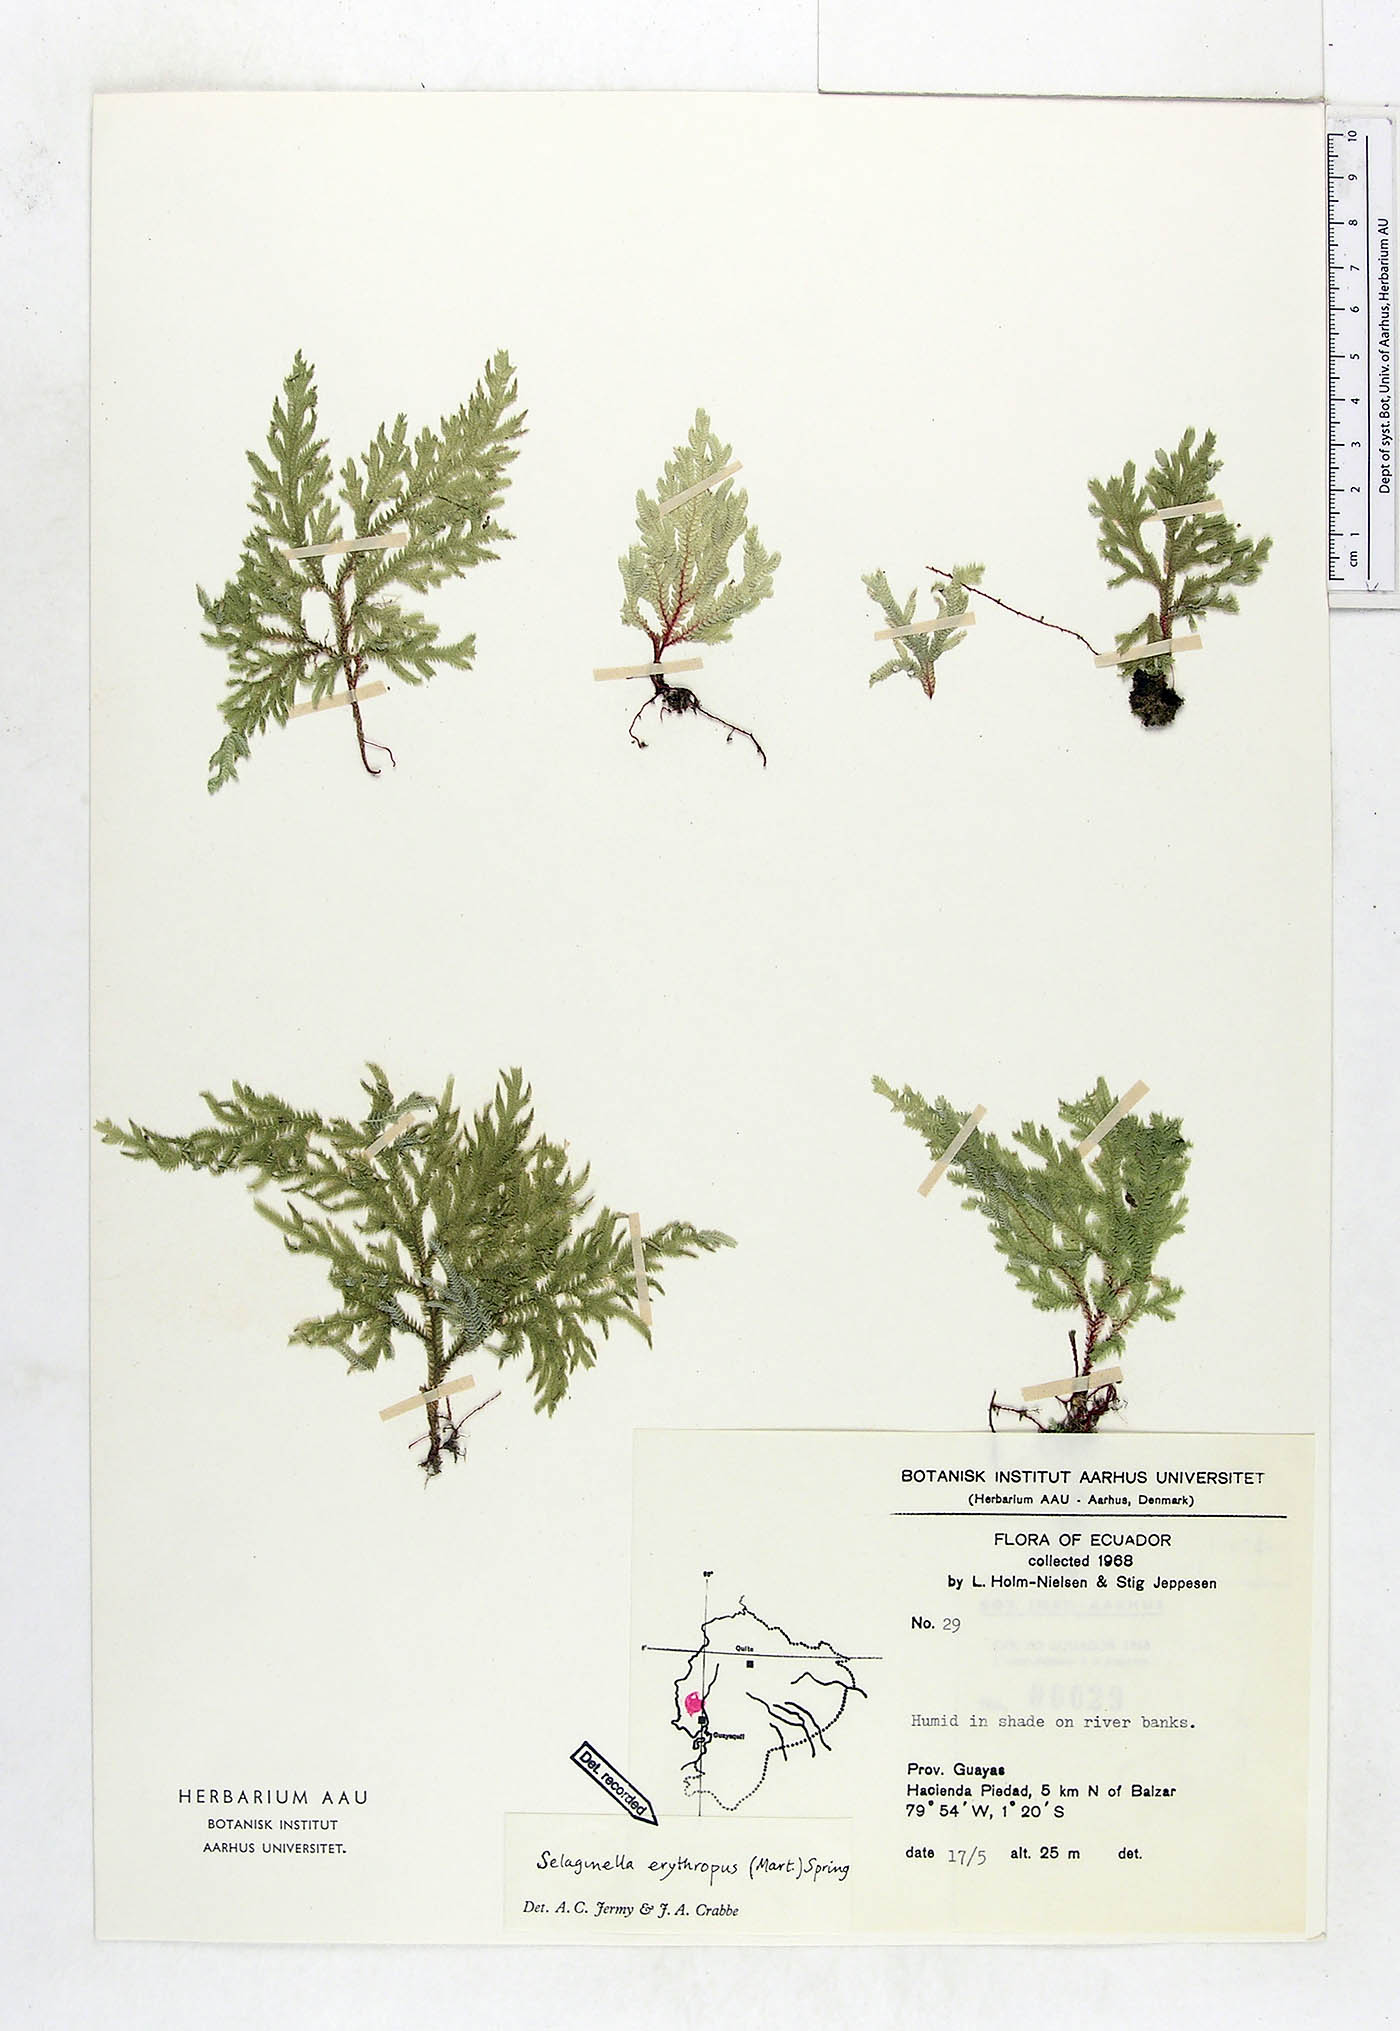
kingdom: Plantae
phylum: Tracheophyta
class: Lycopodiopsida
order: Selaginellales
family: Selaginellaceae
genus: Selaginella
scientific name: Selaginella erythropus
